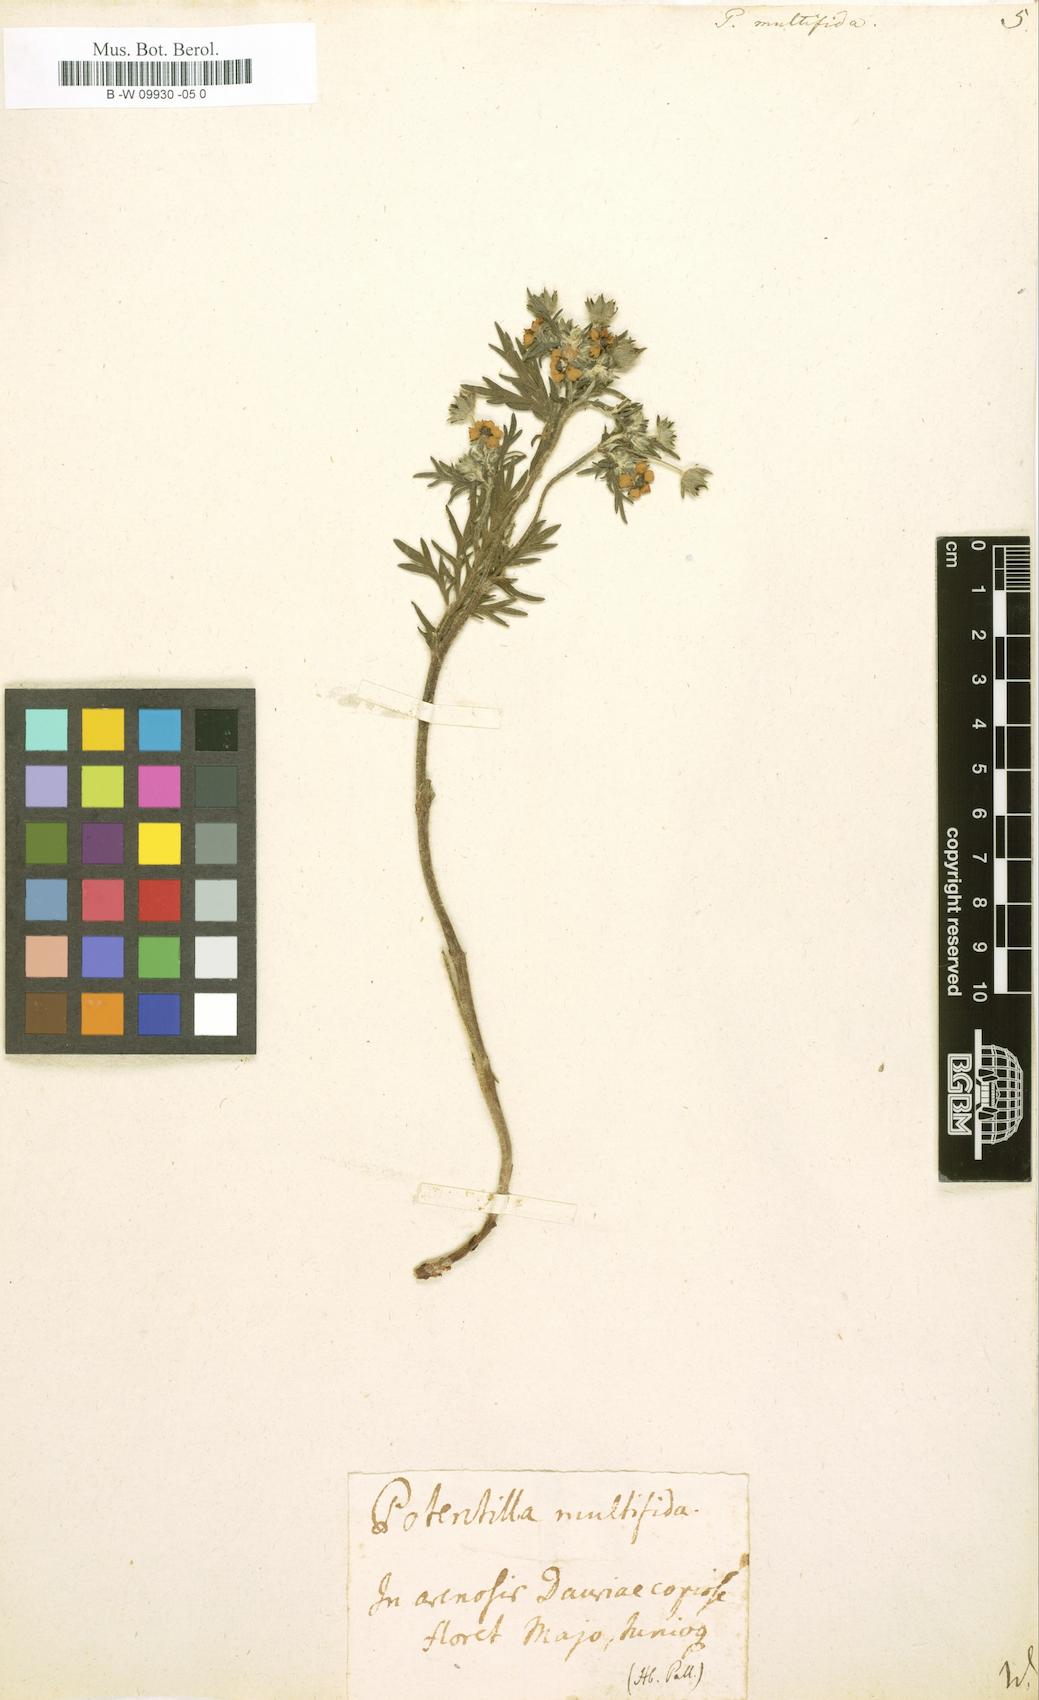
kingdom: Plantae
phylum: Tracheophyta
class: Magnoliopsida
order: Rosales
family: Rosaceae
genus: Potentilla
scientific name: Potentilla multifida
